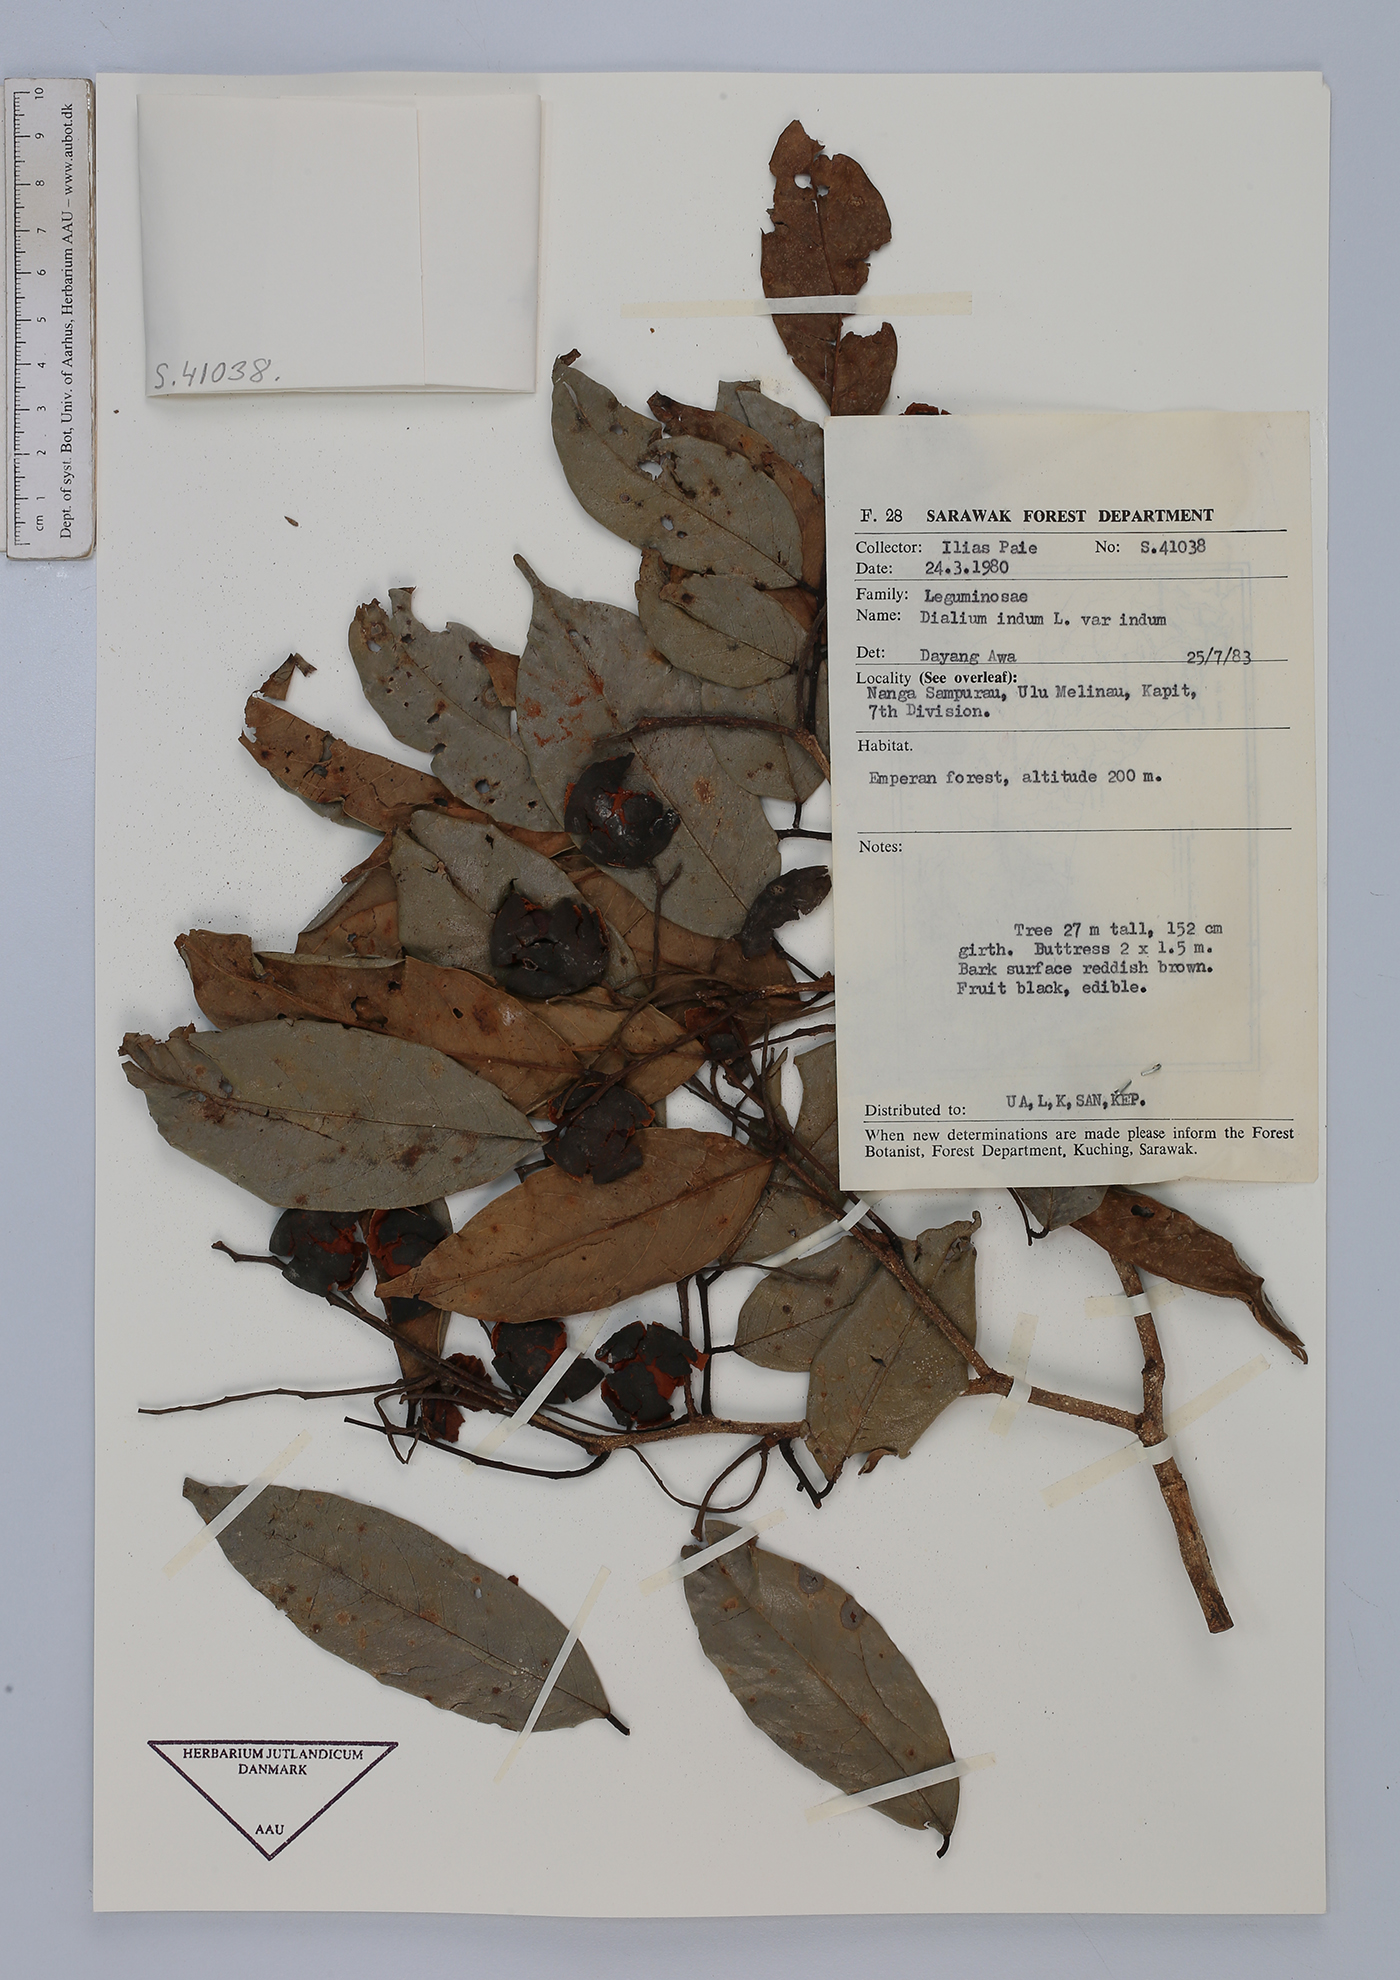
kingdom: Plantae
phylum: Tracheophyta
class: Magnoliopsida
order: Fabales
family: Fabaceae
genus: Dialium
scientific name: Dialium indum
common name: Tamarind-plum
